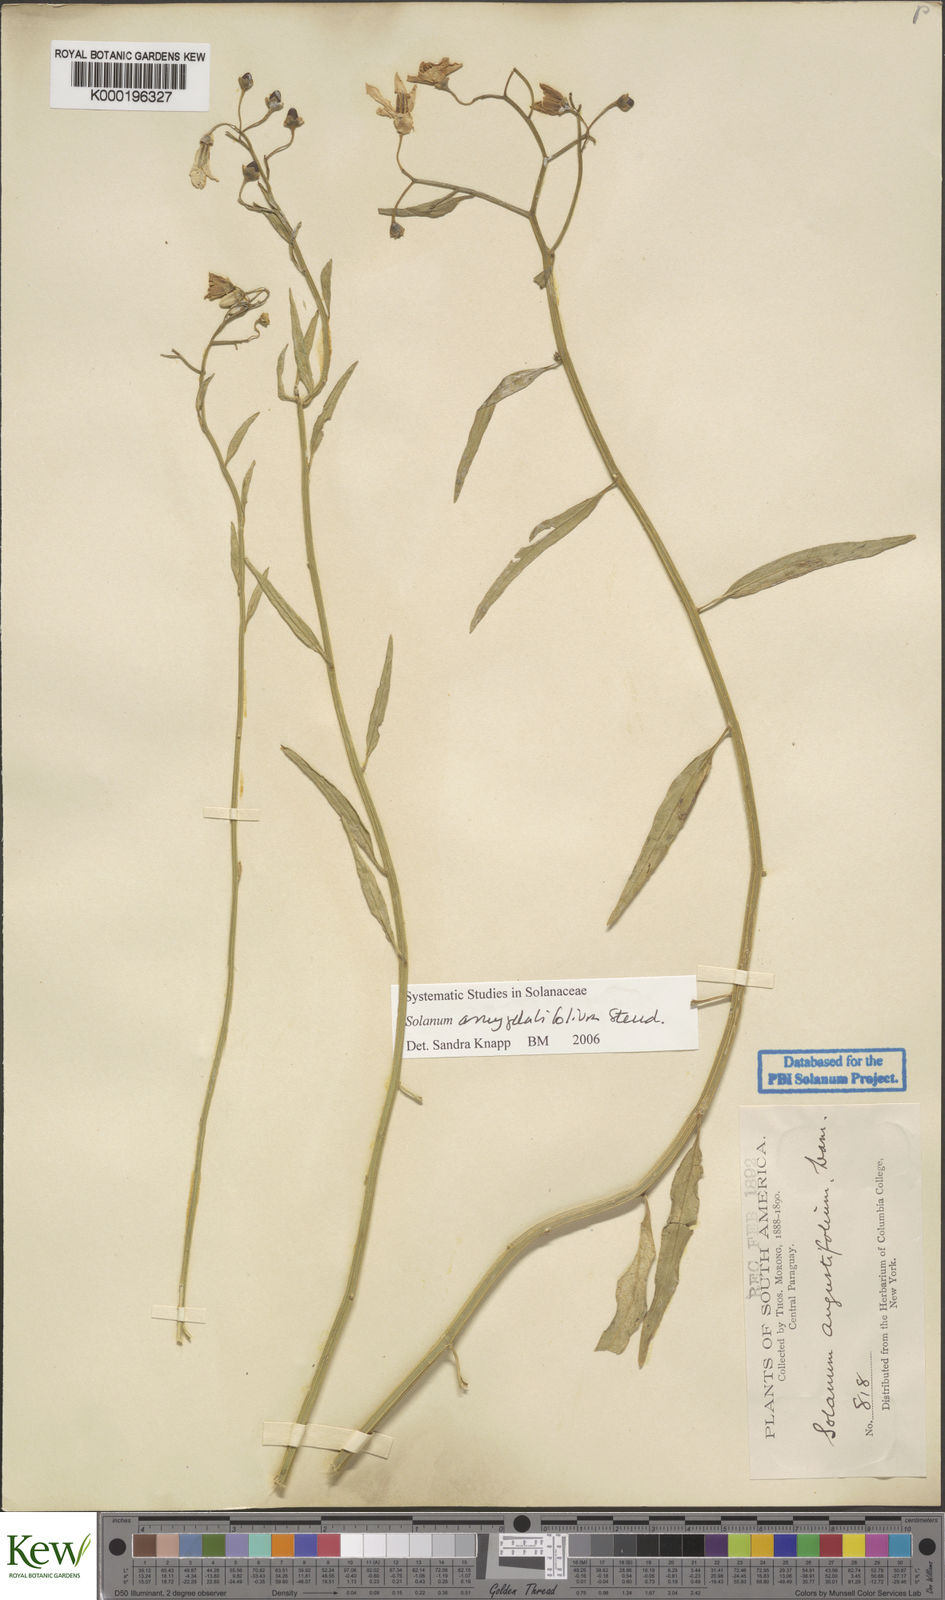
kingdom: Plantae
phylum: Tracheophyta
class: Magnoliopsida
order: Solanales
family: Solanaceae
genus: Solanum
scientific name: Solanum amygdalifolium
